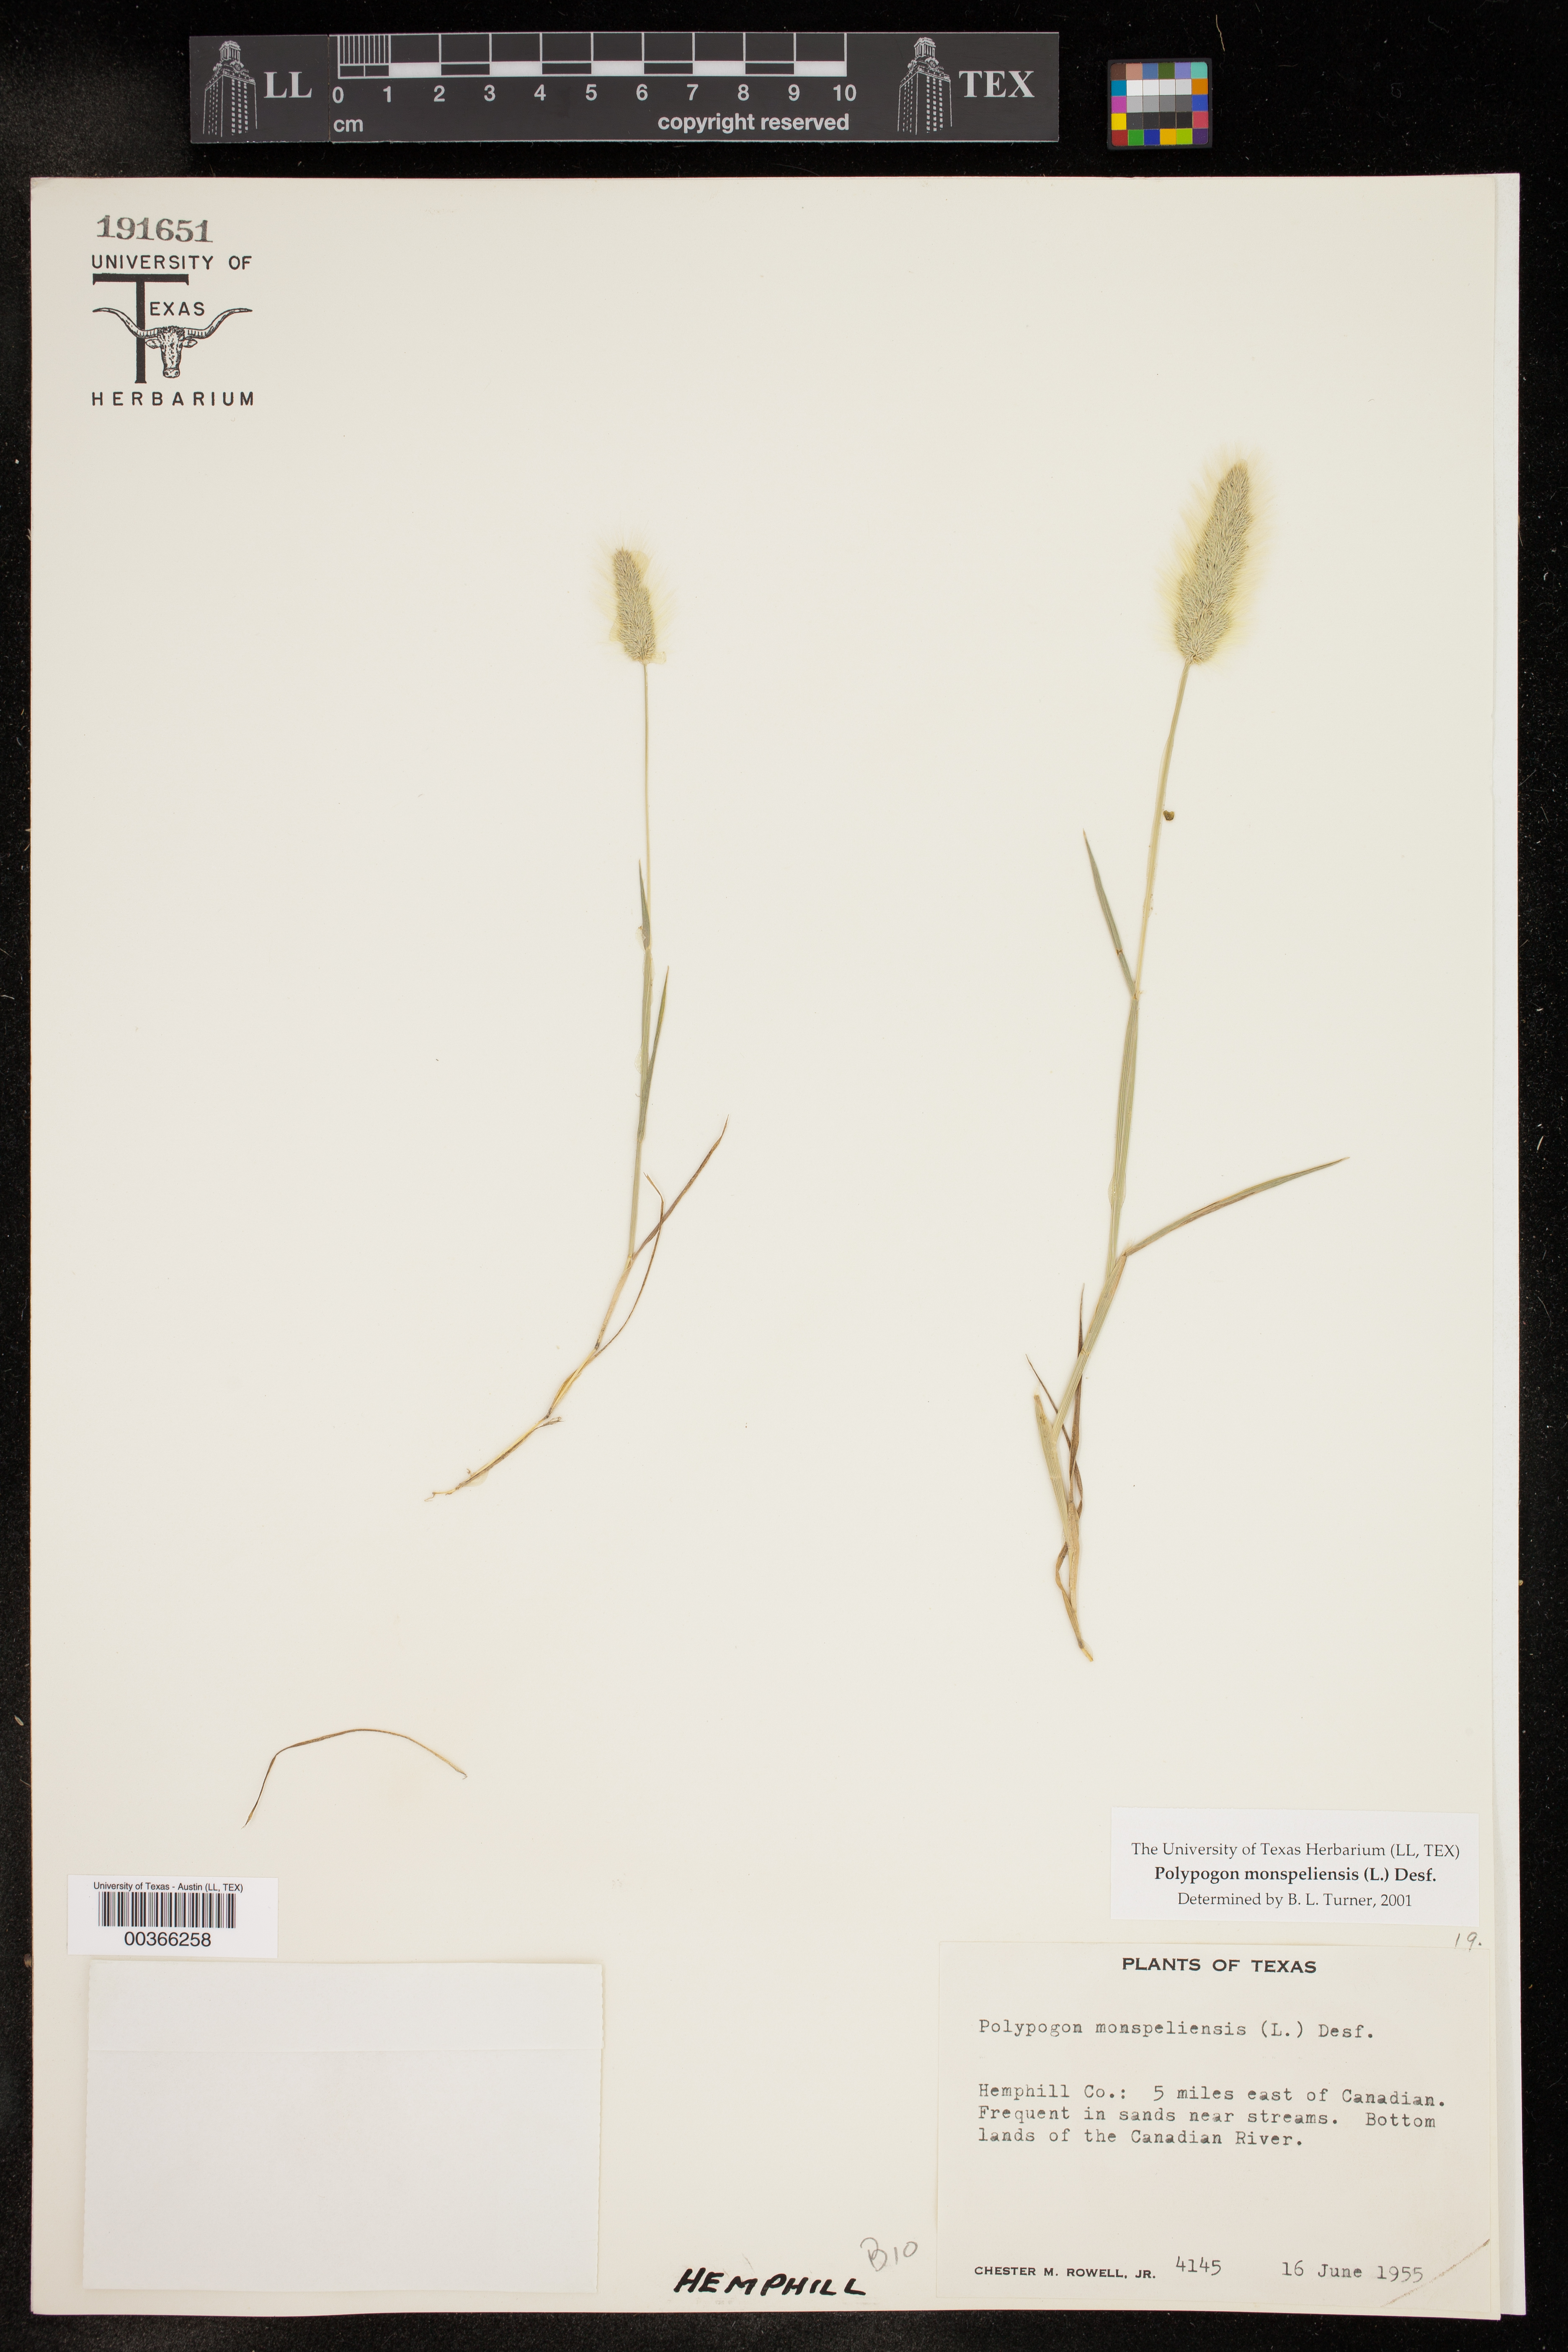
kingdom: Plantae
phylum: Tracheophyta
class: Liliopsida
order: Poales
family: Poaceae
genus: Polypogon
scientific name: Polypogon monspeliensis
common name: Annual rabbitsfoot grass
